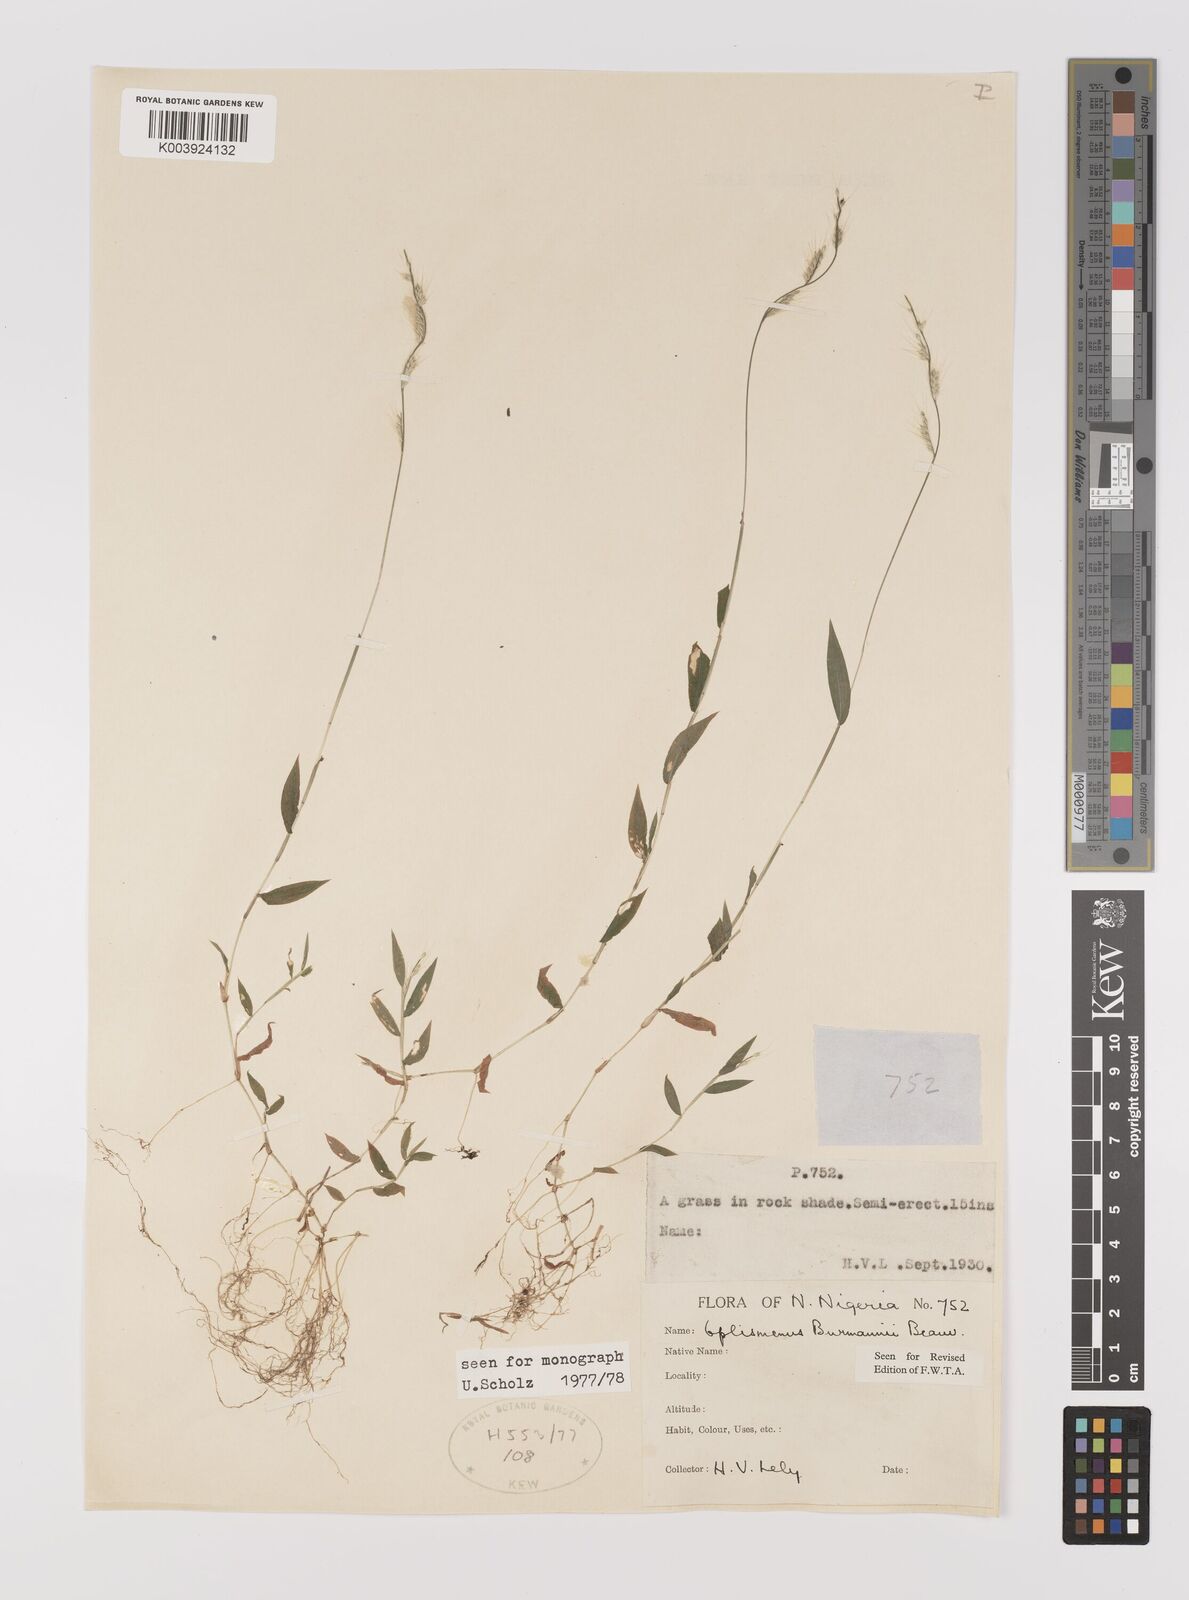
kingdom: Plantae
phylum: Tracheophyta
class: Liliopsida
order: Poales
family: Poaceae
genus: Oplismenus
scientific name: Oplismenus burmanni
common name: Burmann's basketgrass
